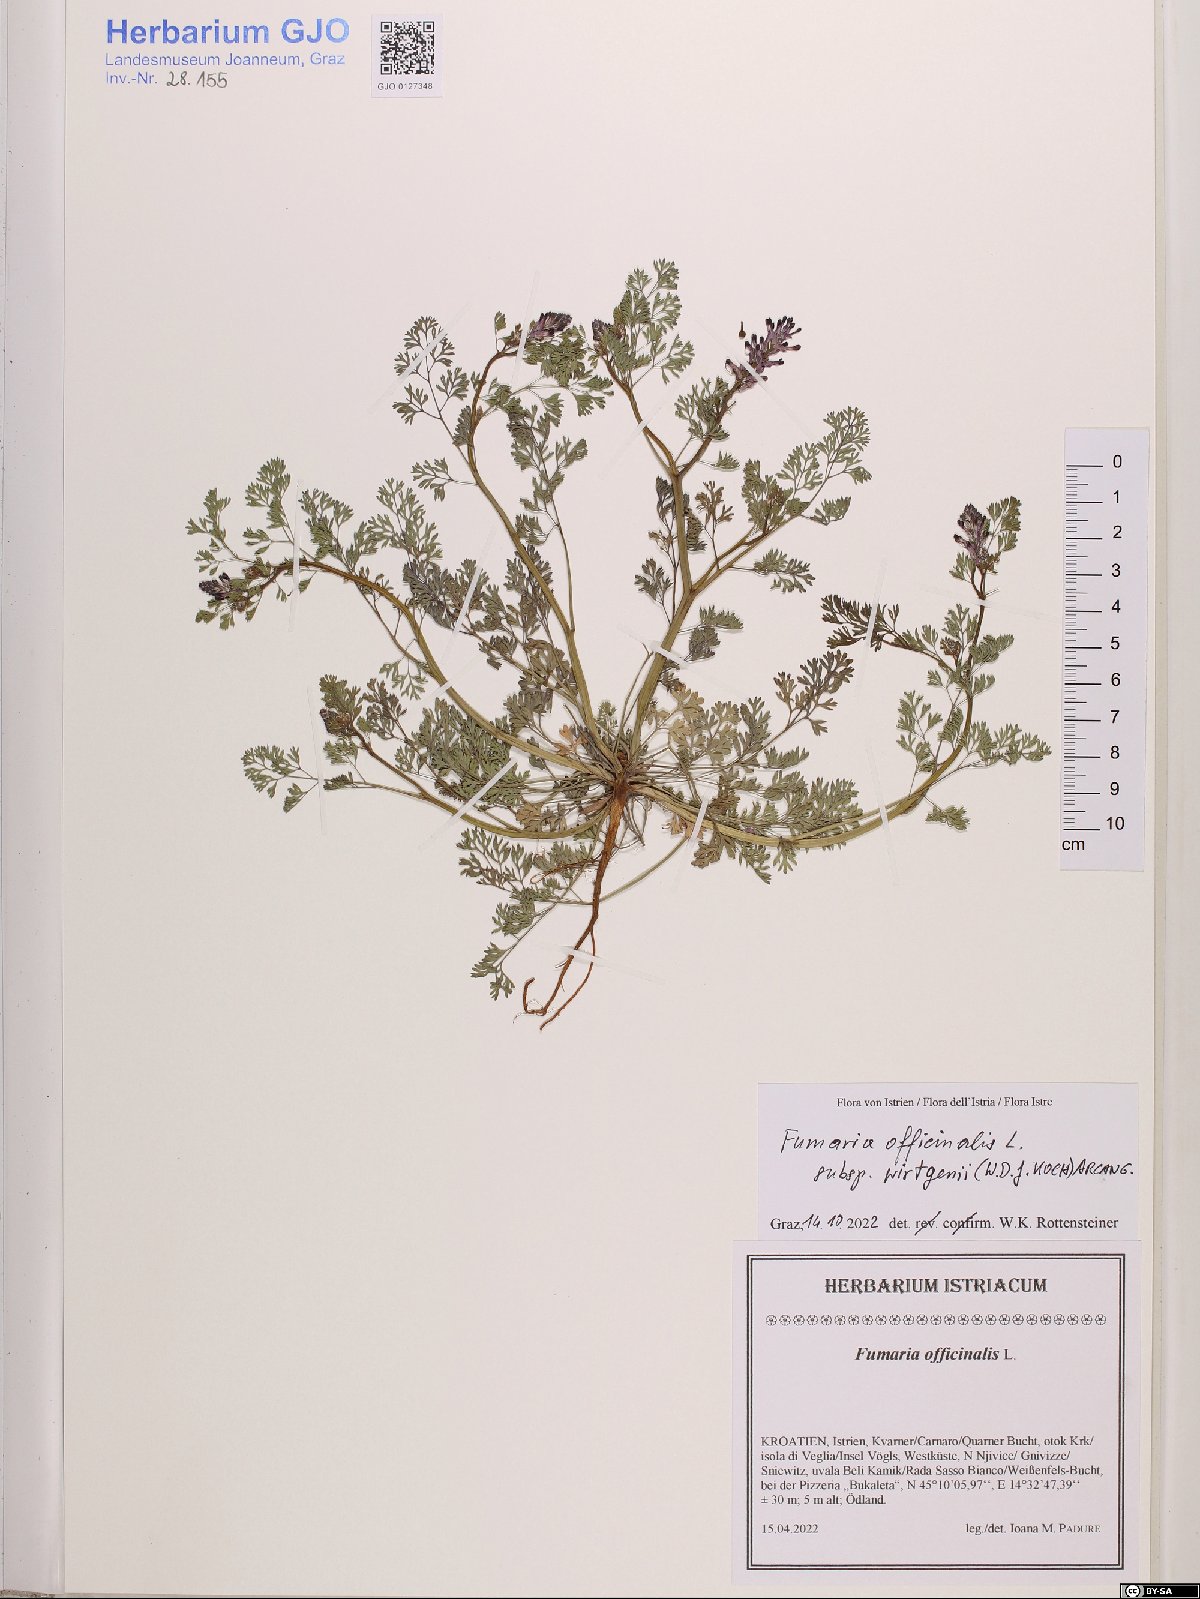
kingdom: Plantae
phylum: Tracheophyta
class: Magnoliopsida
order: Ranunculales
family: Papaveraceae
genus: Fumaria
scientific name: Fumaria wirtgenii
